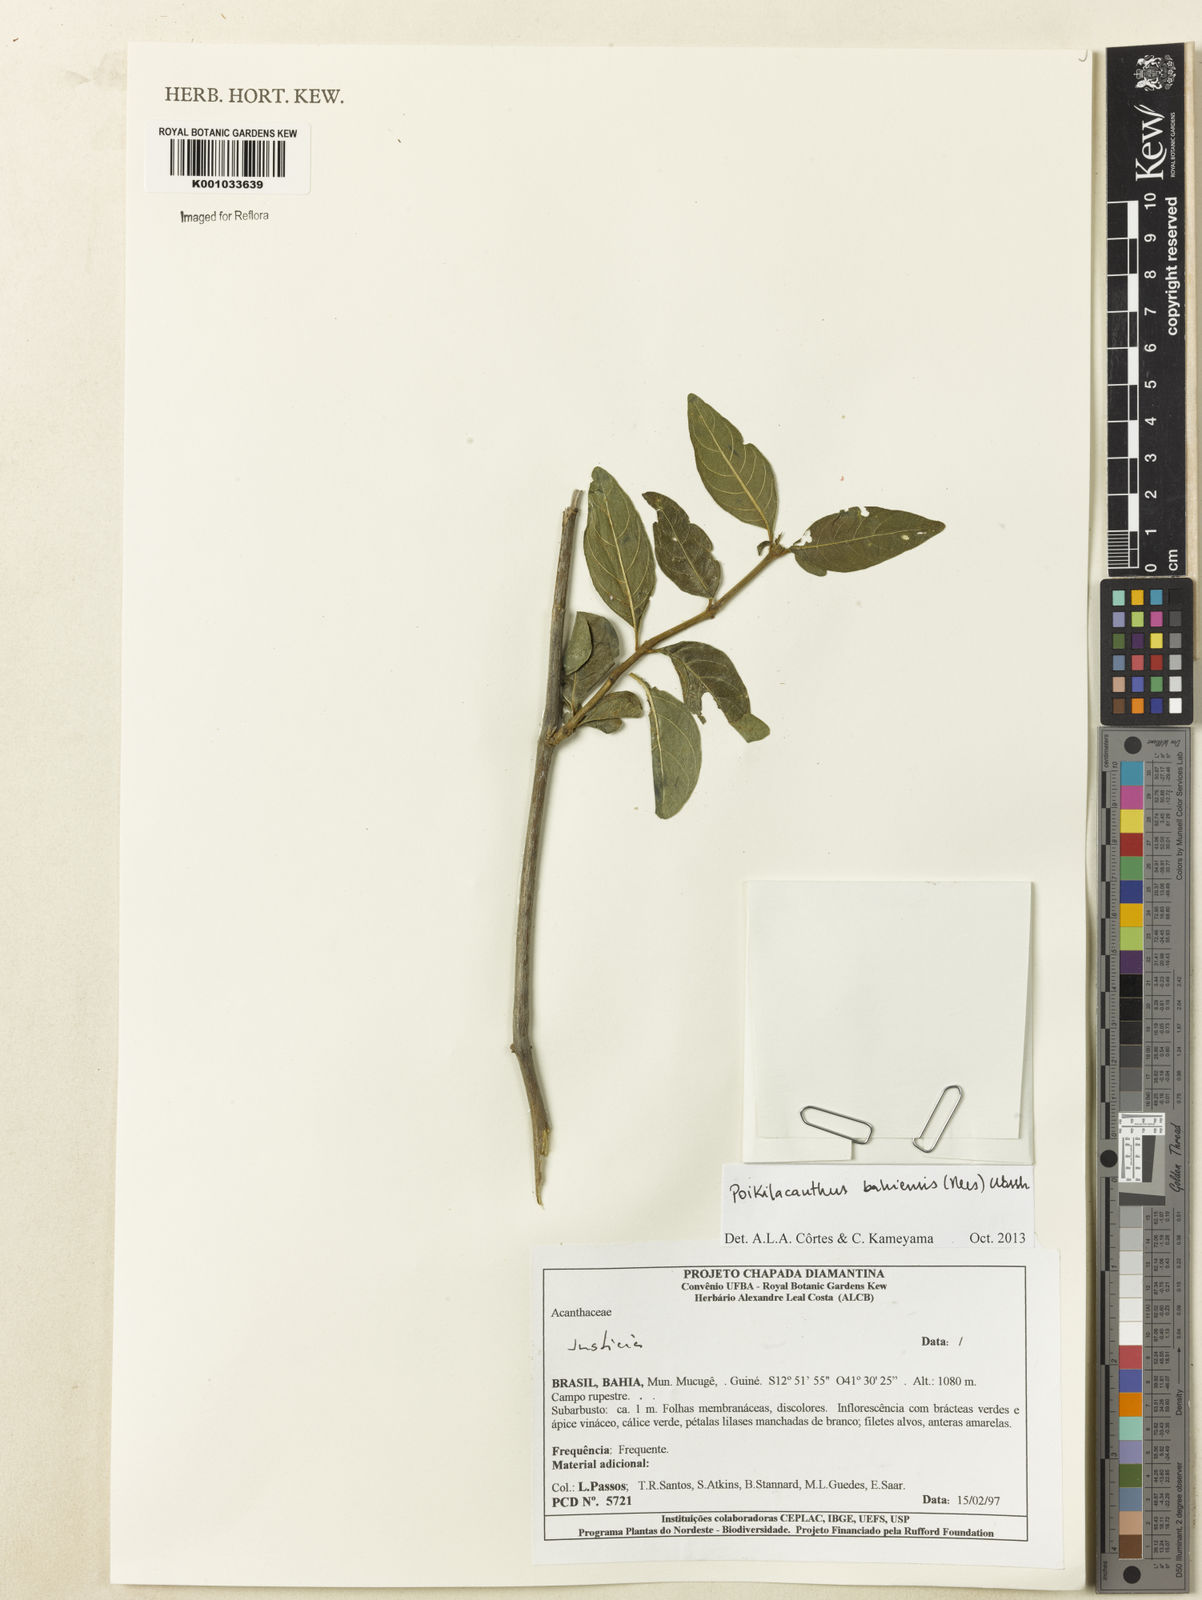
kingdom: Plantae
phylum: Tracheophyta
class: Magnoliopsida
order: Lamiales
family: Acanthaceae
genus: Poikilacanthus
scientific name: Poikilacanthus bahiensis
